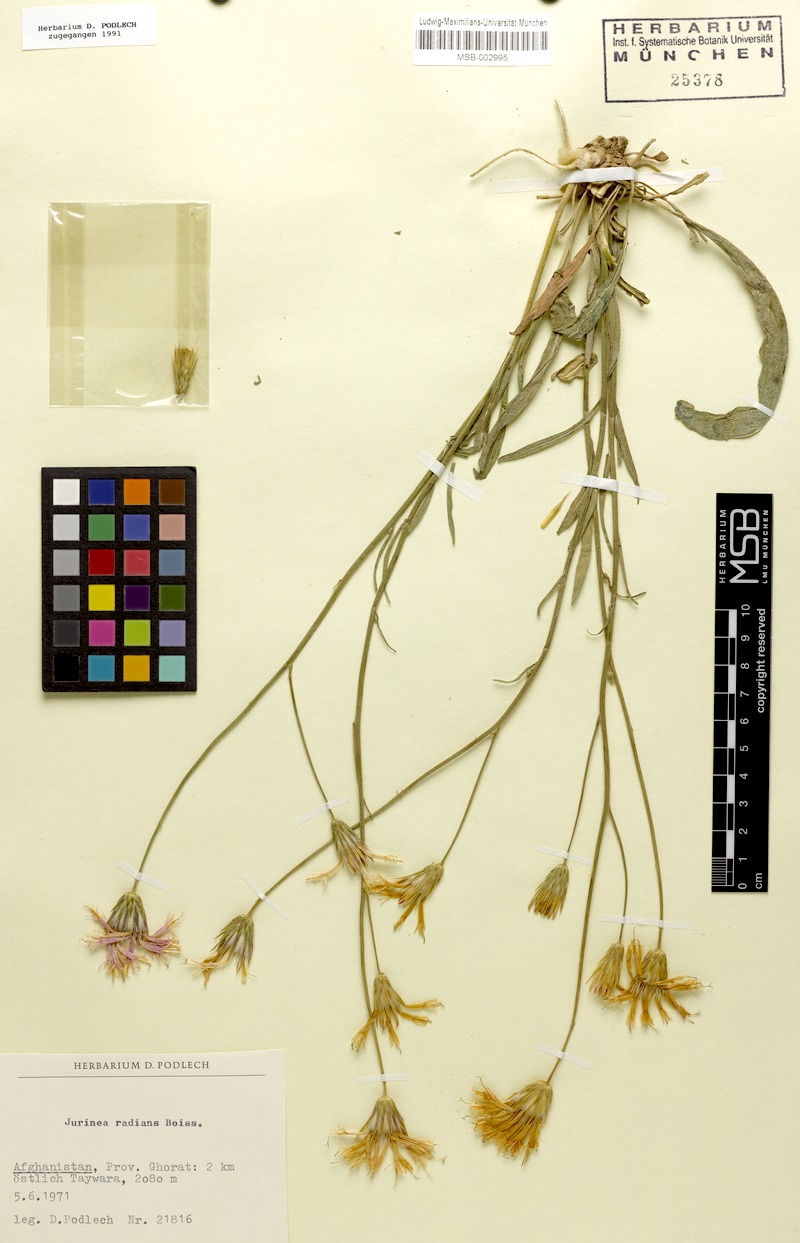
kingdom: Plantae
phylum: Tracheophyta
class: Magnoliopsida
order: Asterales
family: Asteraceae
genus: Jurinea
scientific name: Jurinea shahrestanica
